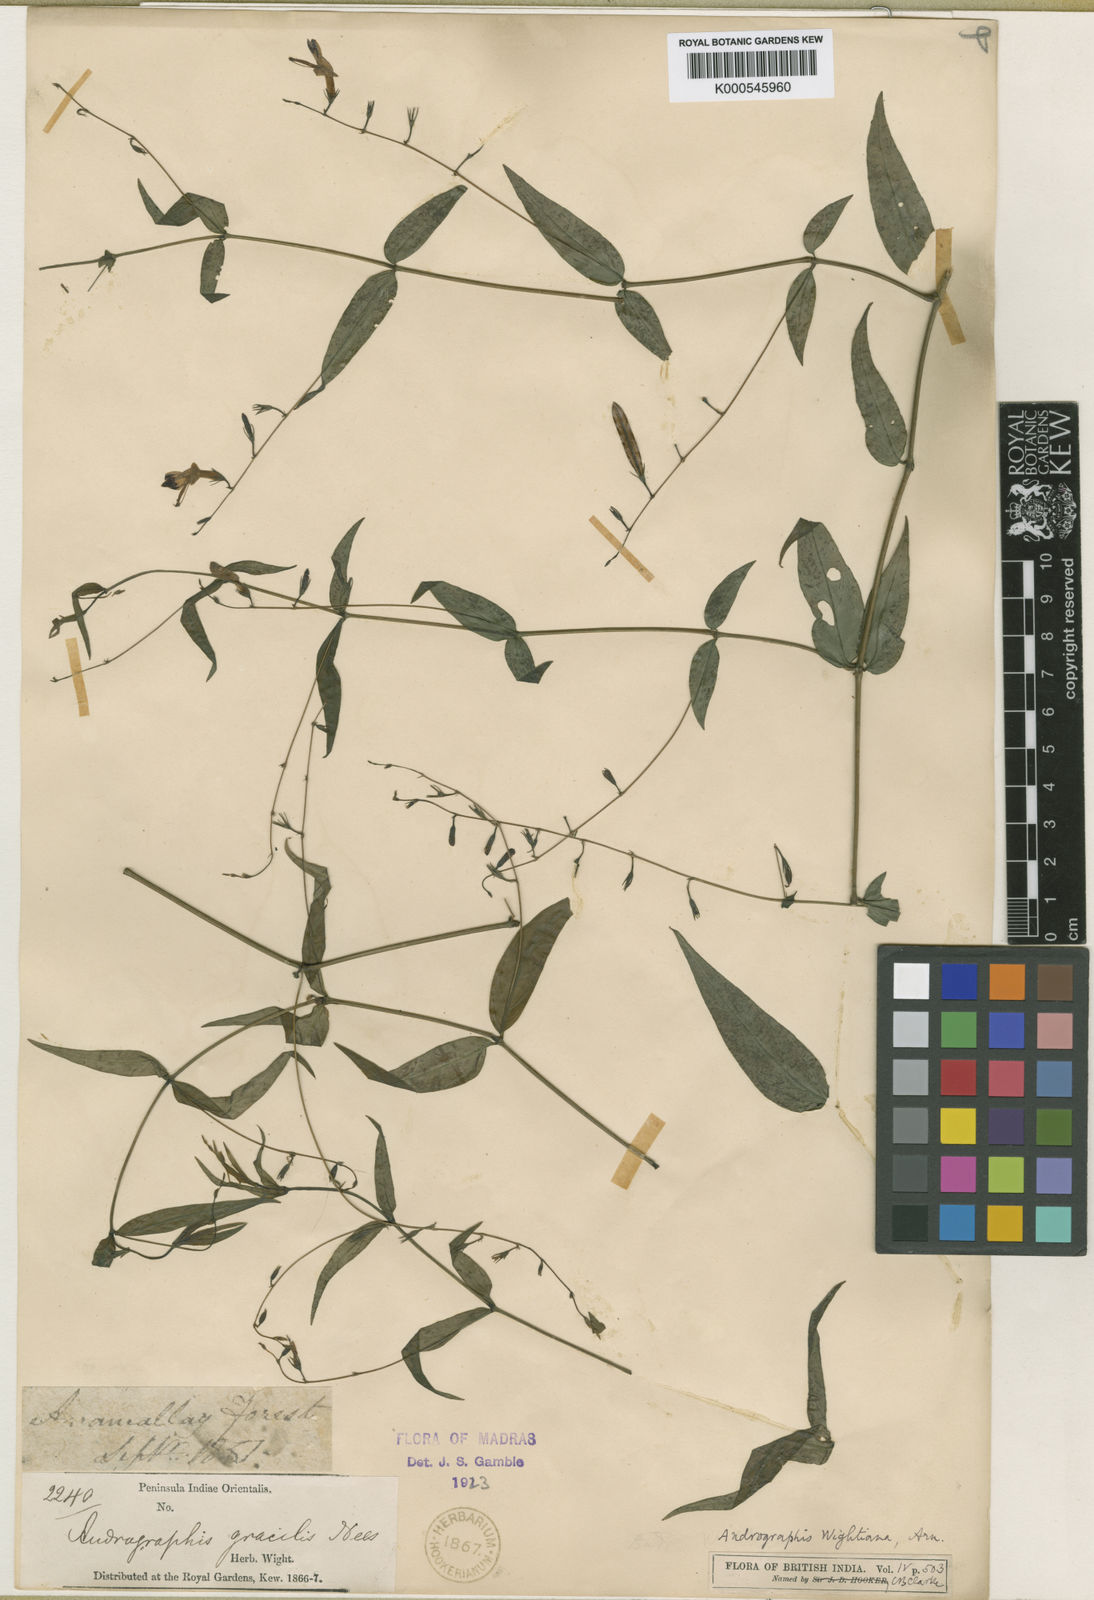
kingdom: Plantae
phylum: Tracheophyta
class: Magnoliopsida
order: Lamiales
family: Acanthaceae
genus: Andrographis
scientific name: Andrographis atropurpurea
